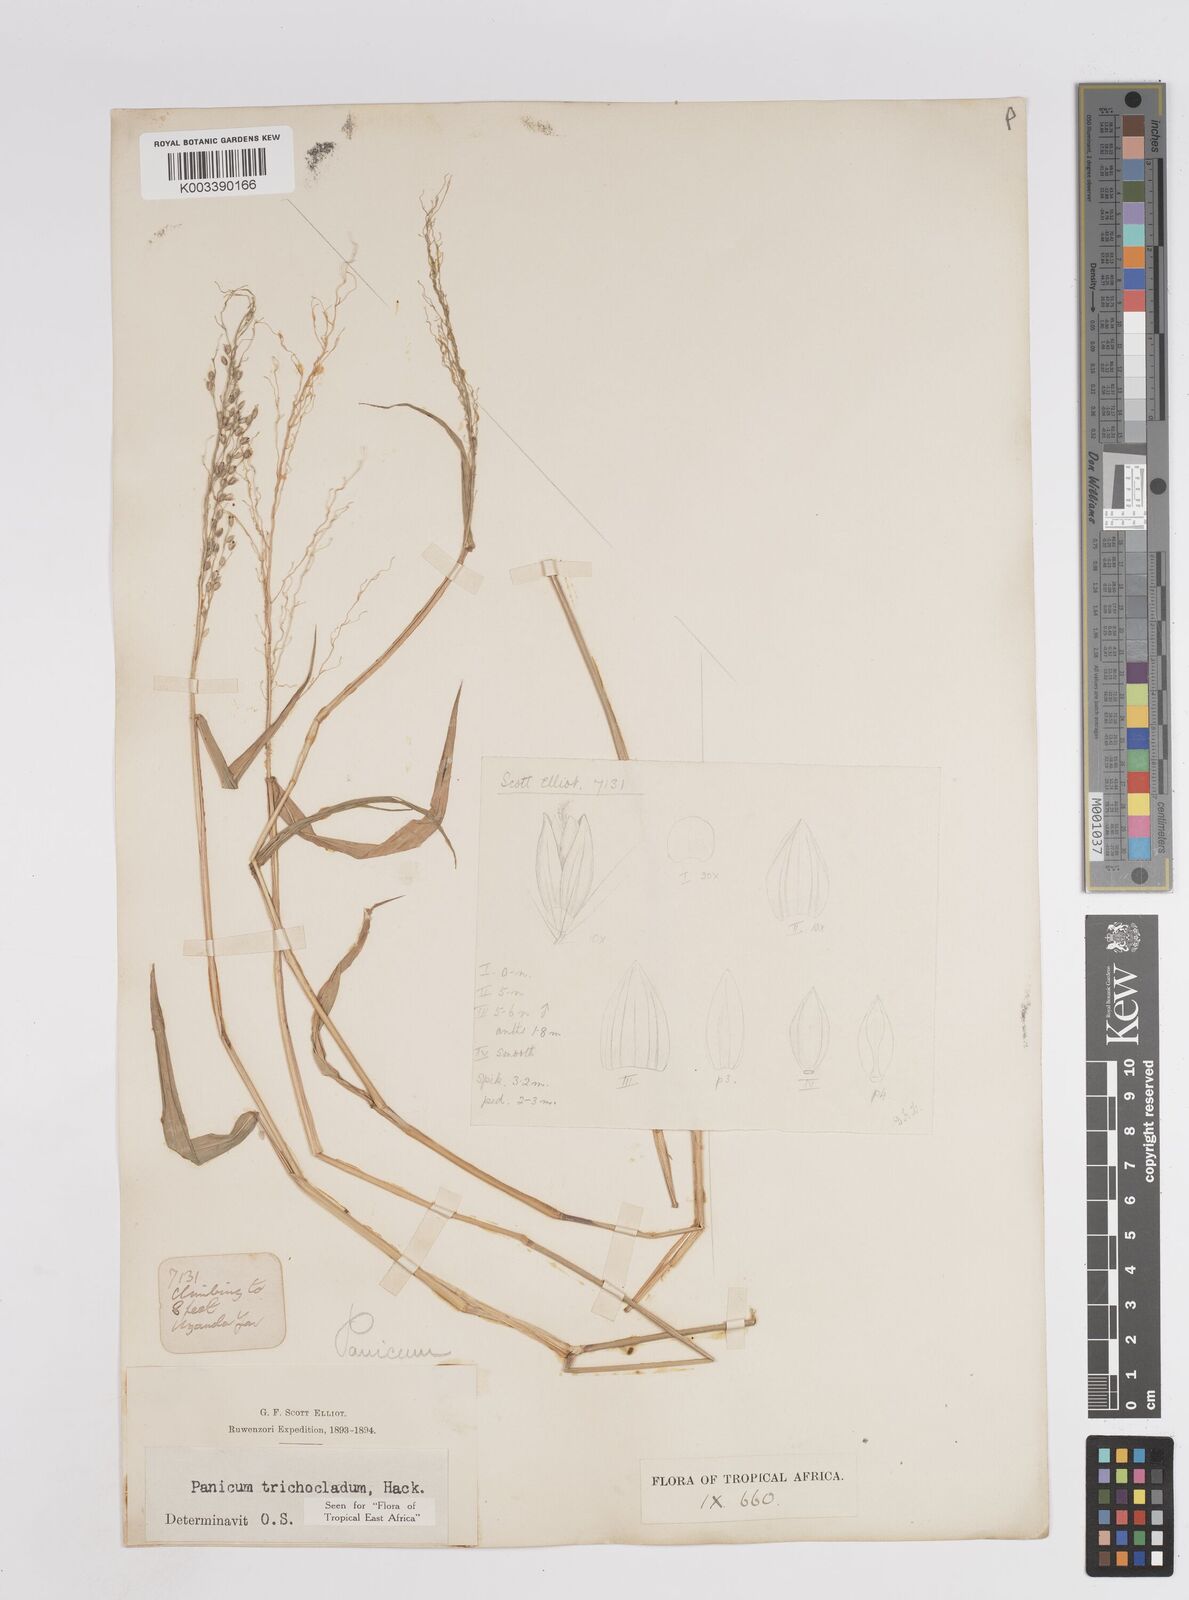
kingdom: Plantae
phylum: Tracheophyta
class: Liliopsida
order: Poales
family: Poaceae
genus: Panicum
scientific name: Panicum trichocladum
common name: Donkey grass
